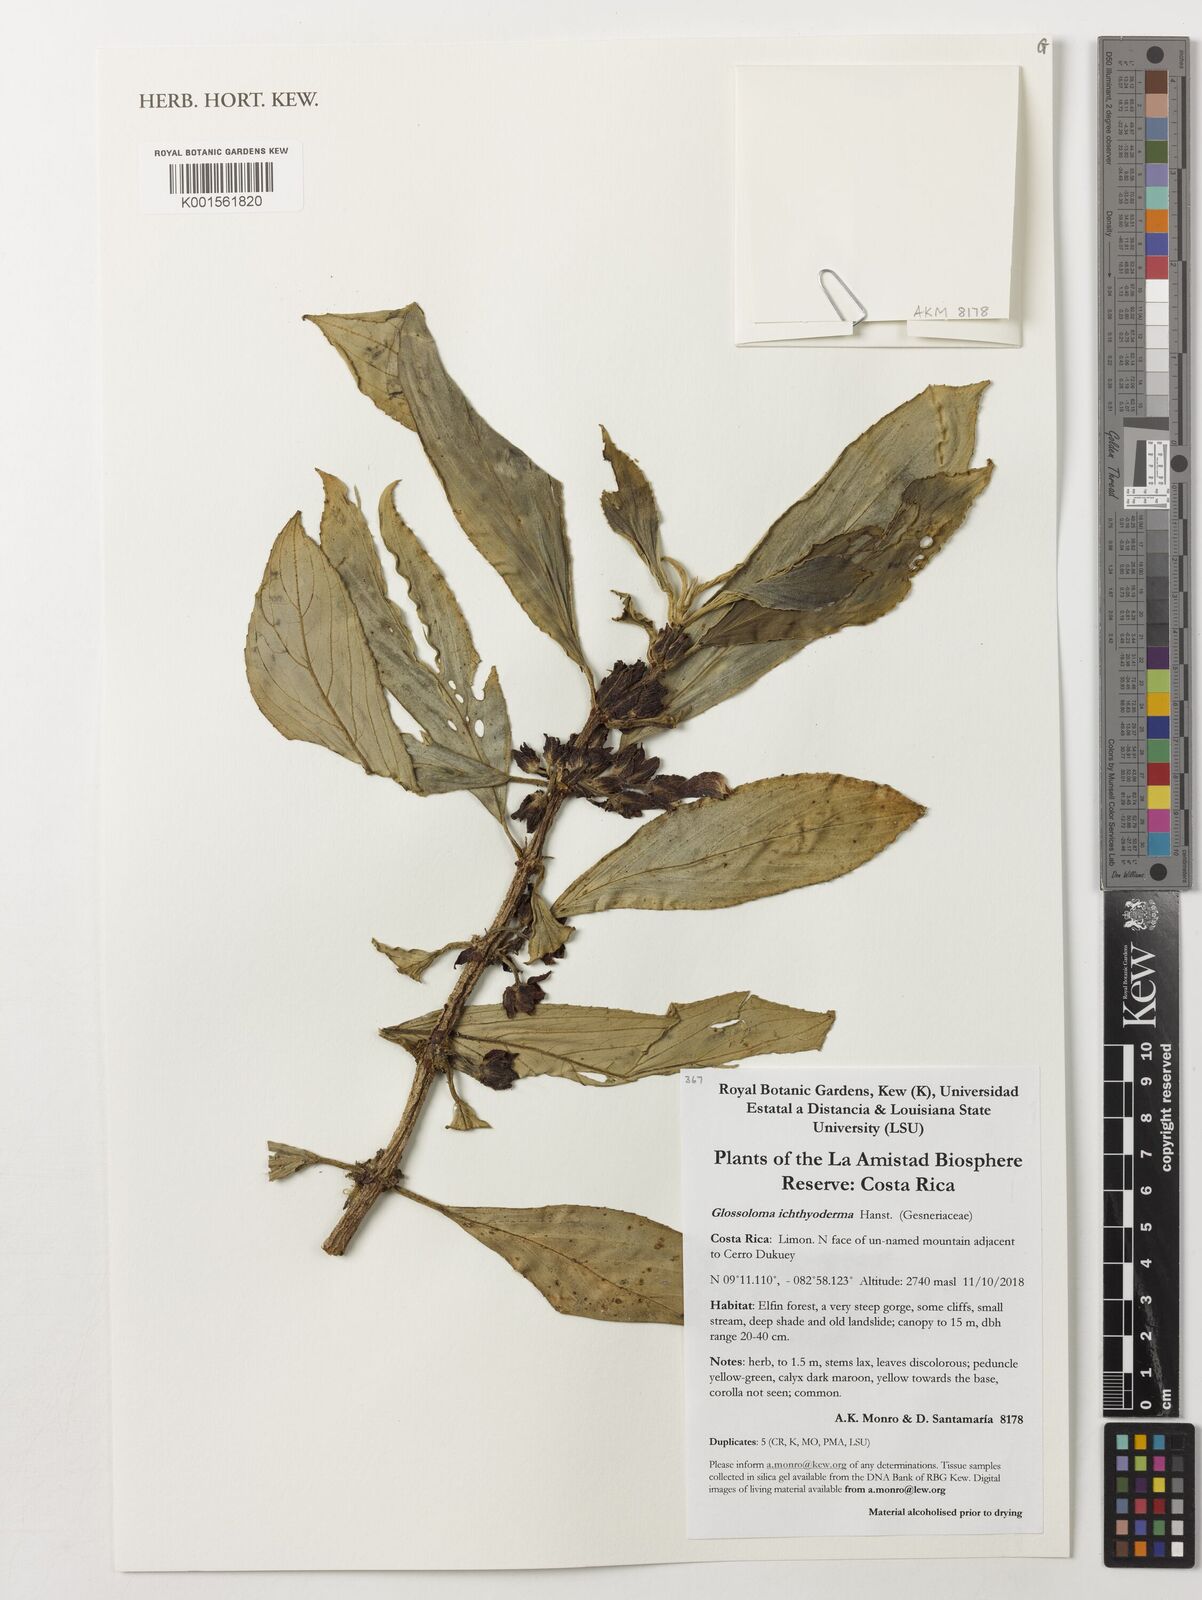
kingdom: Plantae
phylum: Tracheophyta
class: Magnoliopsida
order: Lamiales
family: Gesneriaceae
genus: Glossoloma
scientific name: Glossoloma ichthyoderma
